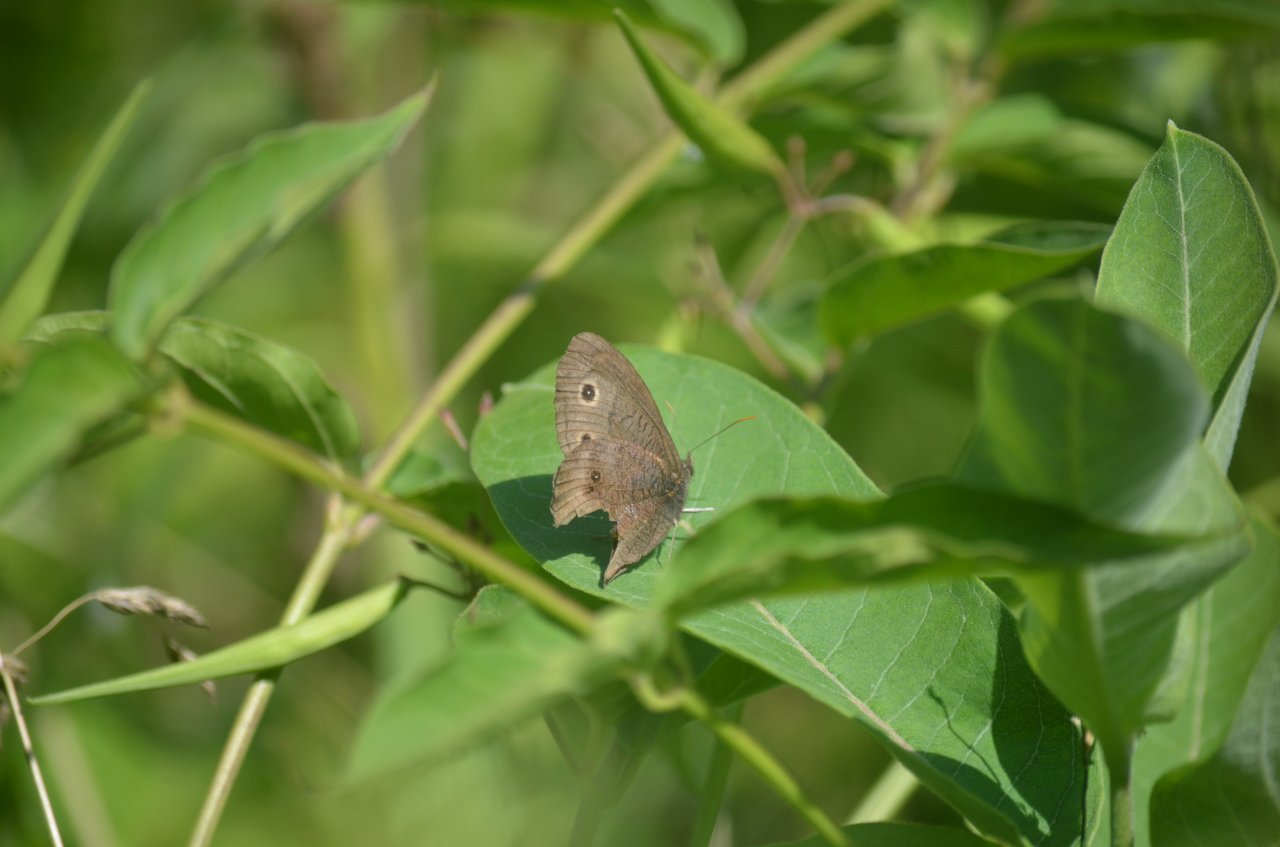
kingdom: Animalia
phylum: Arthropoda
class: Insecta
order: Lepidoptera
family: Nymphalidae
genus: Cercyonis
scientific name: Cercyonis pegala
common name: Common Wood-Nymph
